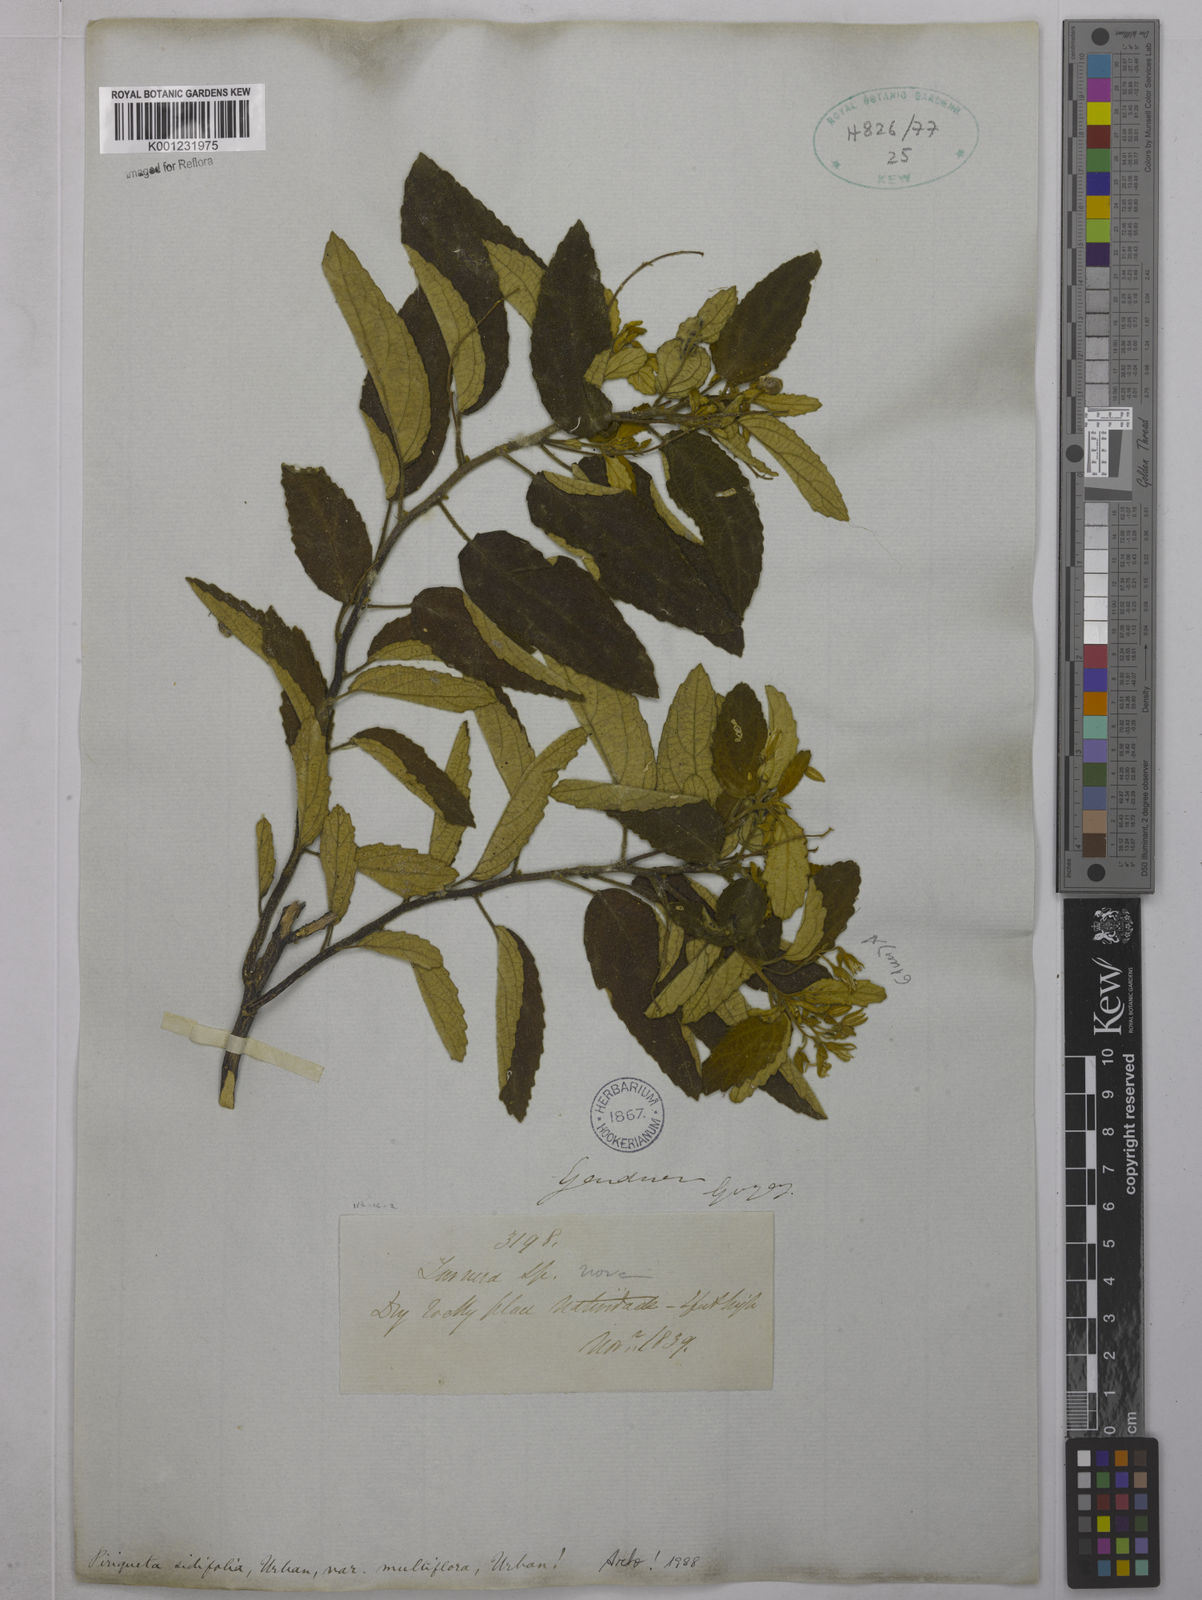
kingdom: Plantae
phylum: Tracheophyta
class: Magnoliopsida
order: Malpighiales
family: Turneraceae
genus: Piriqueta
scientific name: Piriqueta sidifolia
